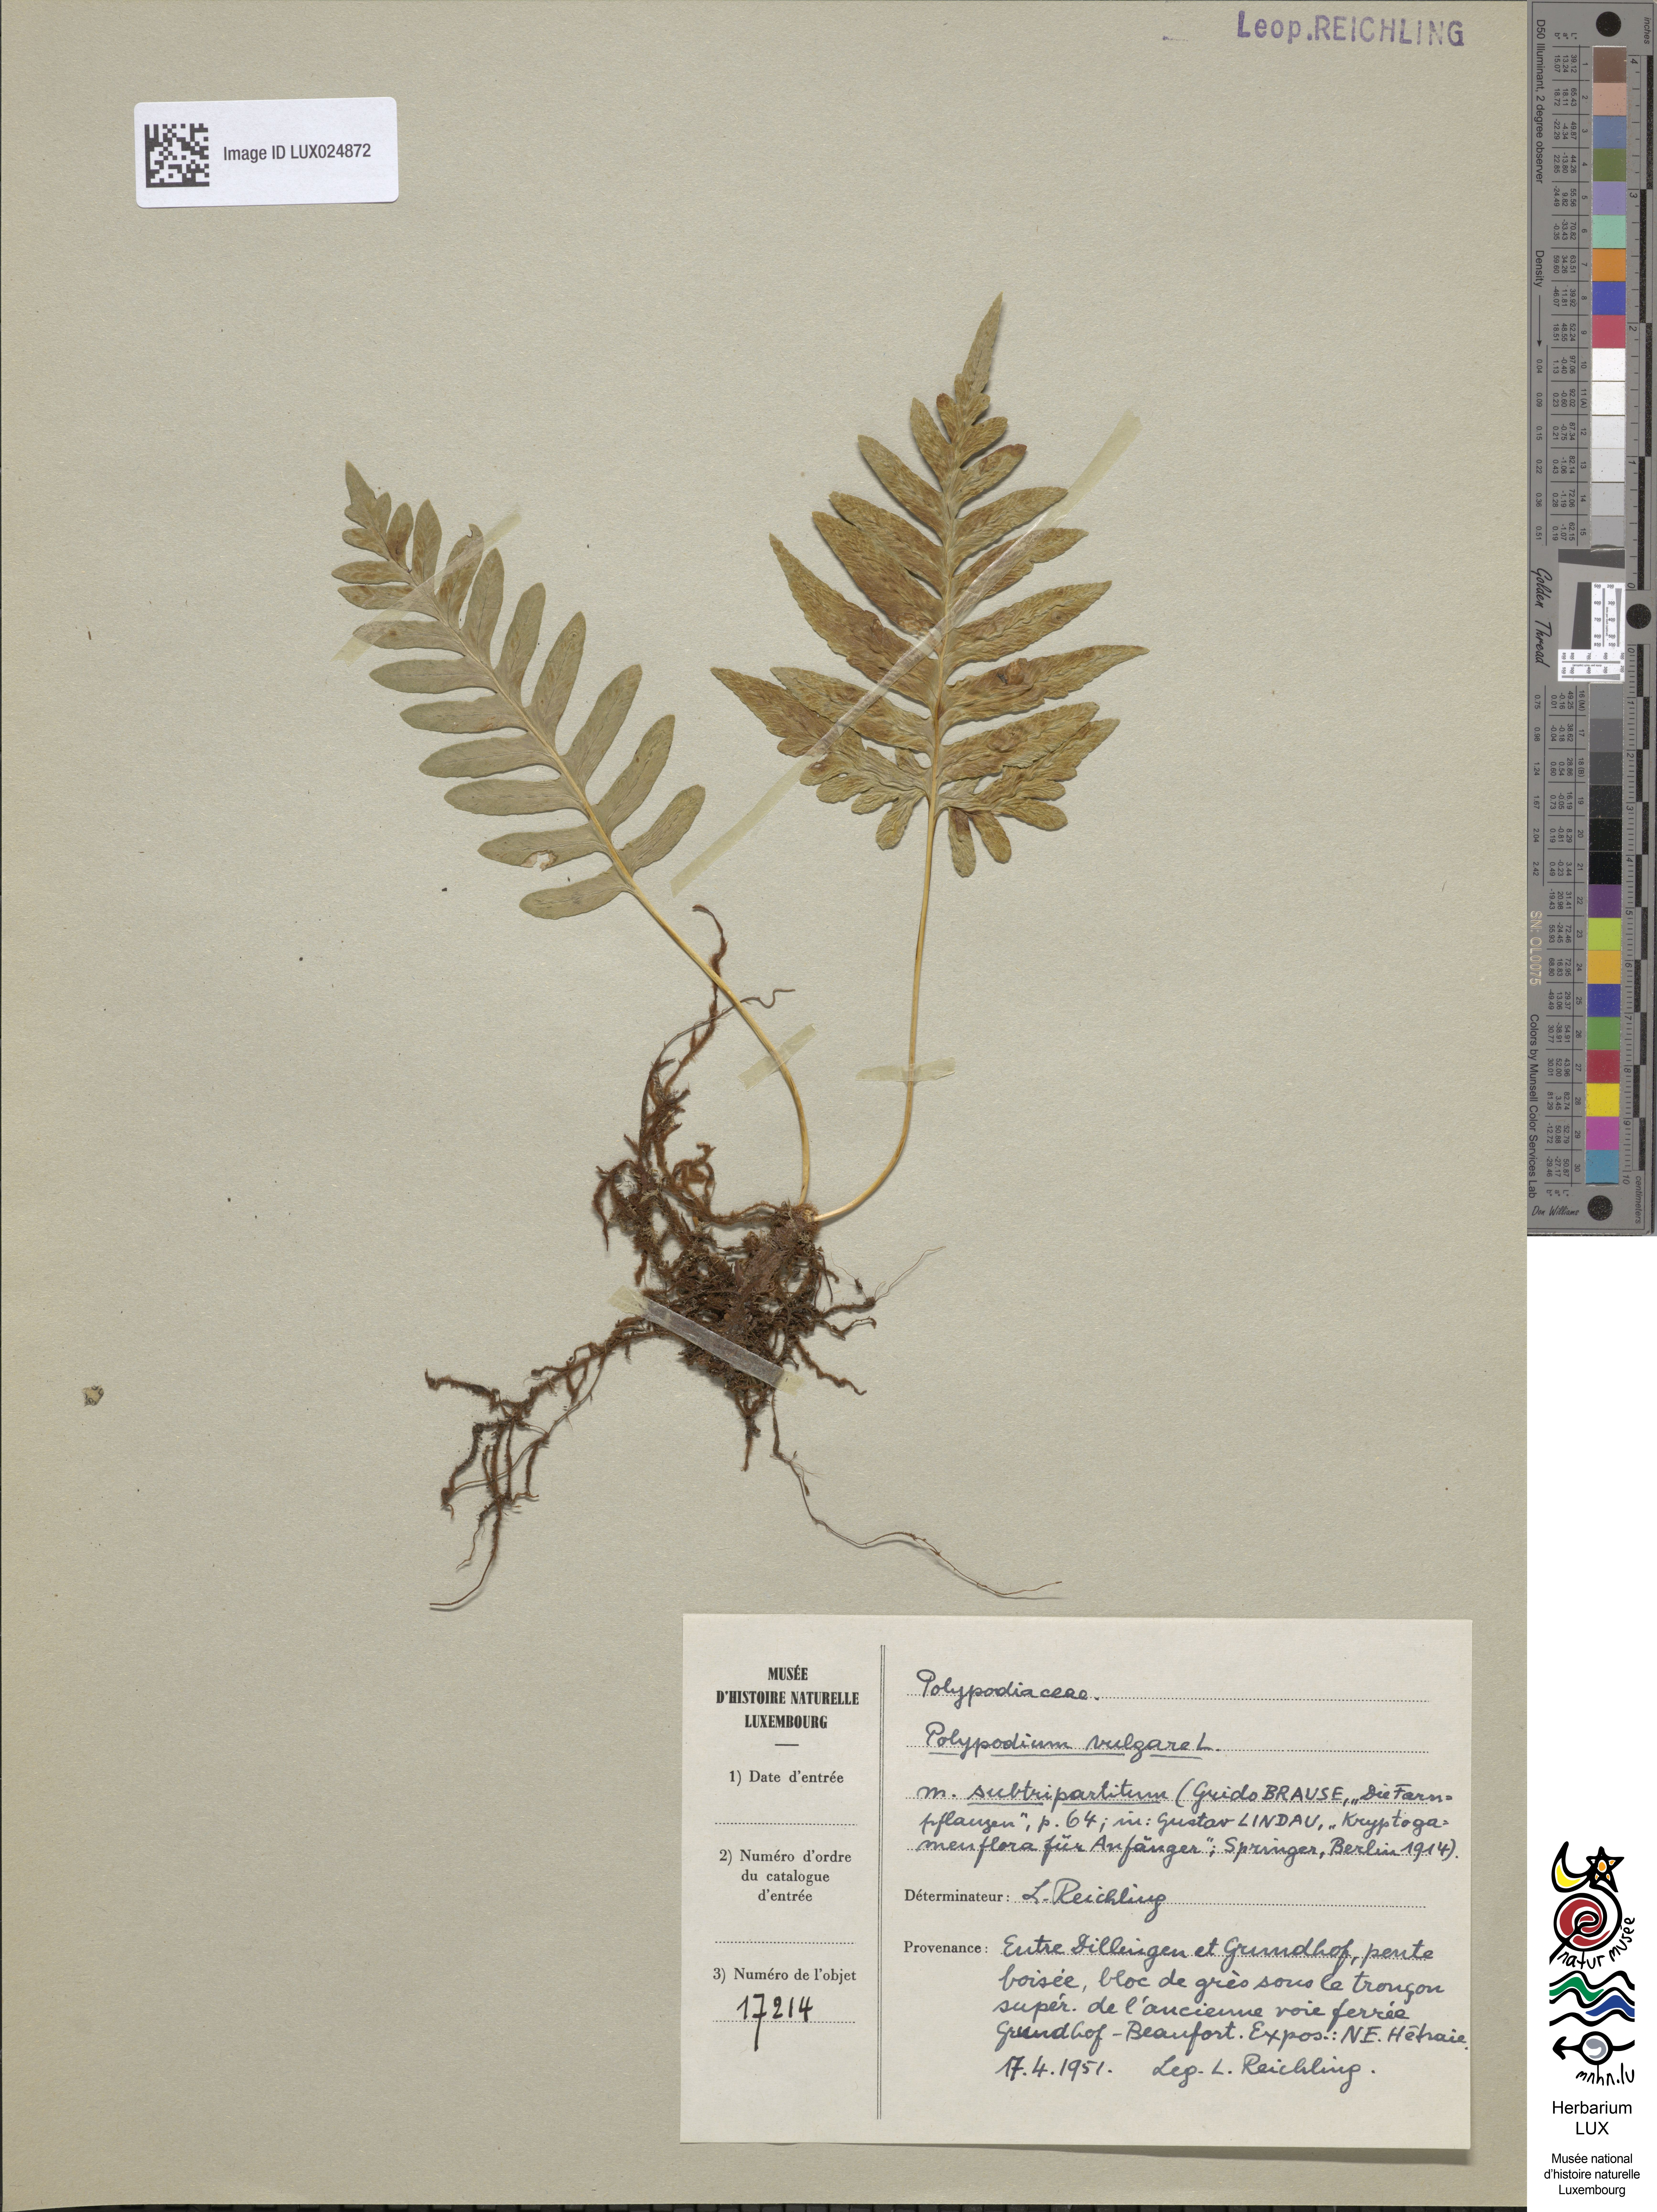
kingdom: Plantae
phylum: Tracheophyta
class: Polypodiopsida
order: Polypodiales
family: Polypodiaceae
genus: Polypodium
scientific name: Polypodium vulgare
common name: Common polypody
